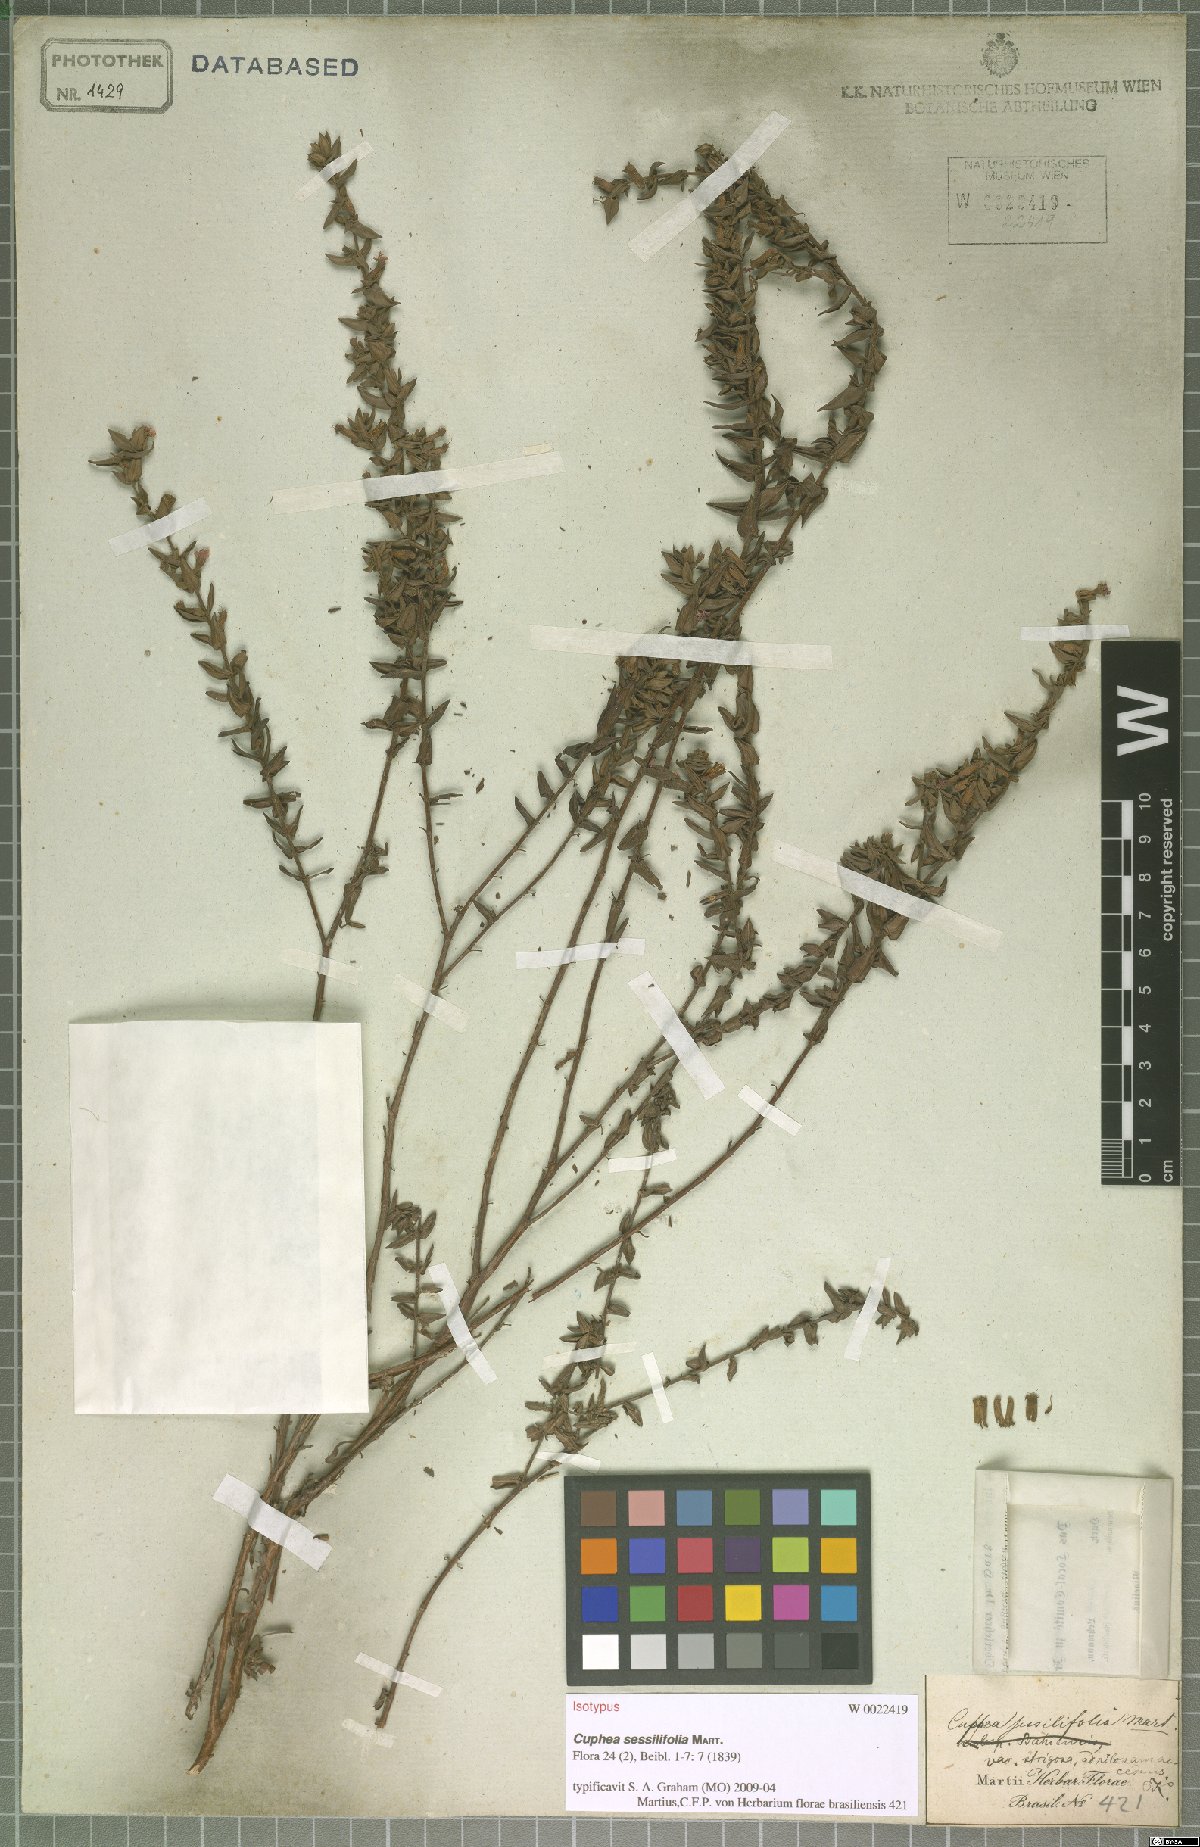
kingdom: Plantae
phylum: Tracheophyta
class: Magnoliopsida
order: Myrtales
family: Lythraceae
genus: Cuphea
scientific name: Cuphea sessilifolia
